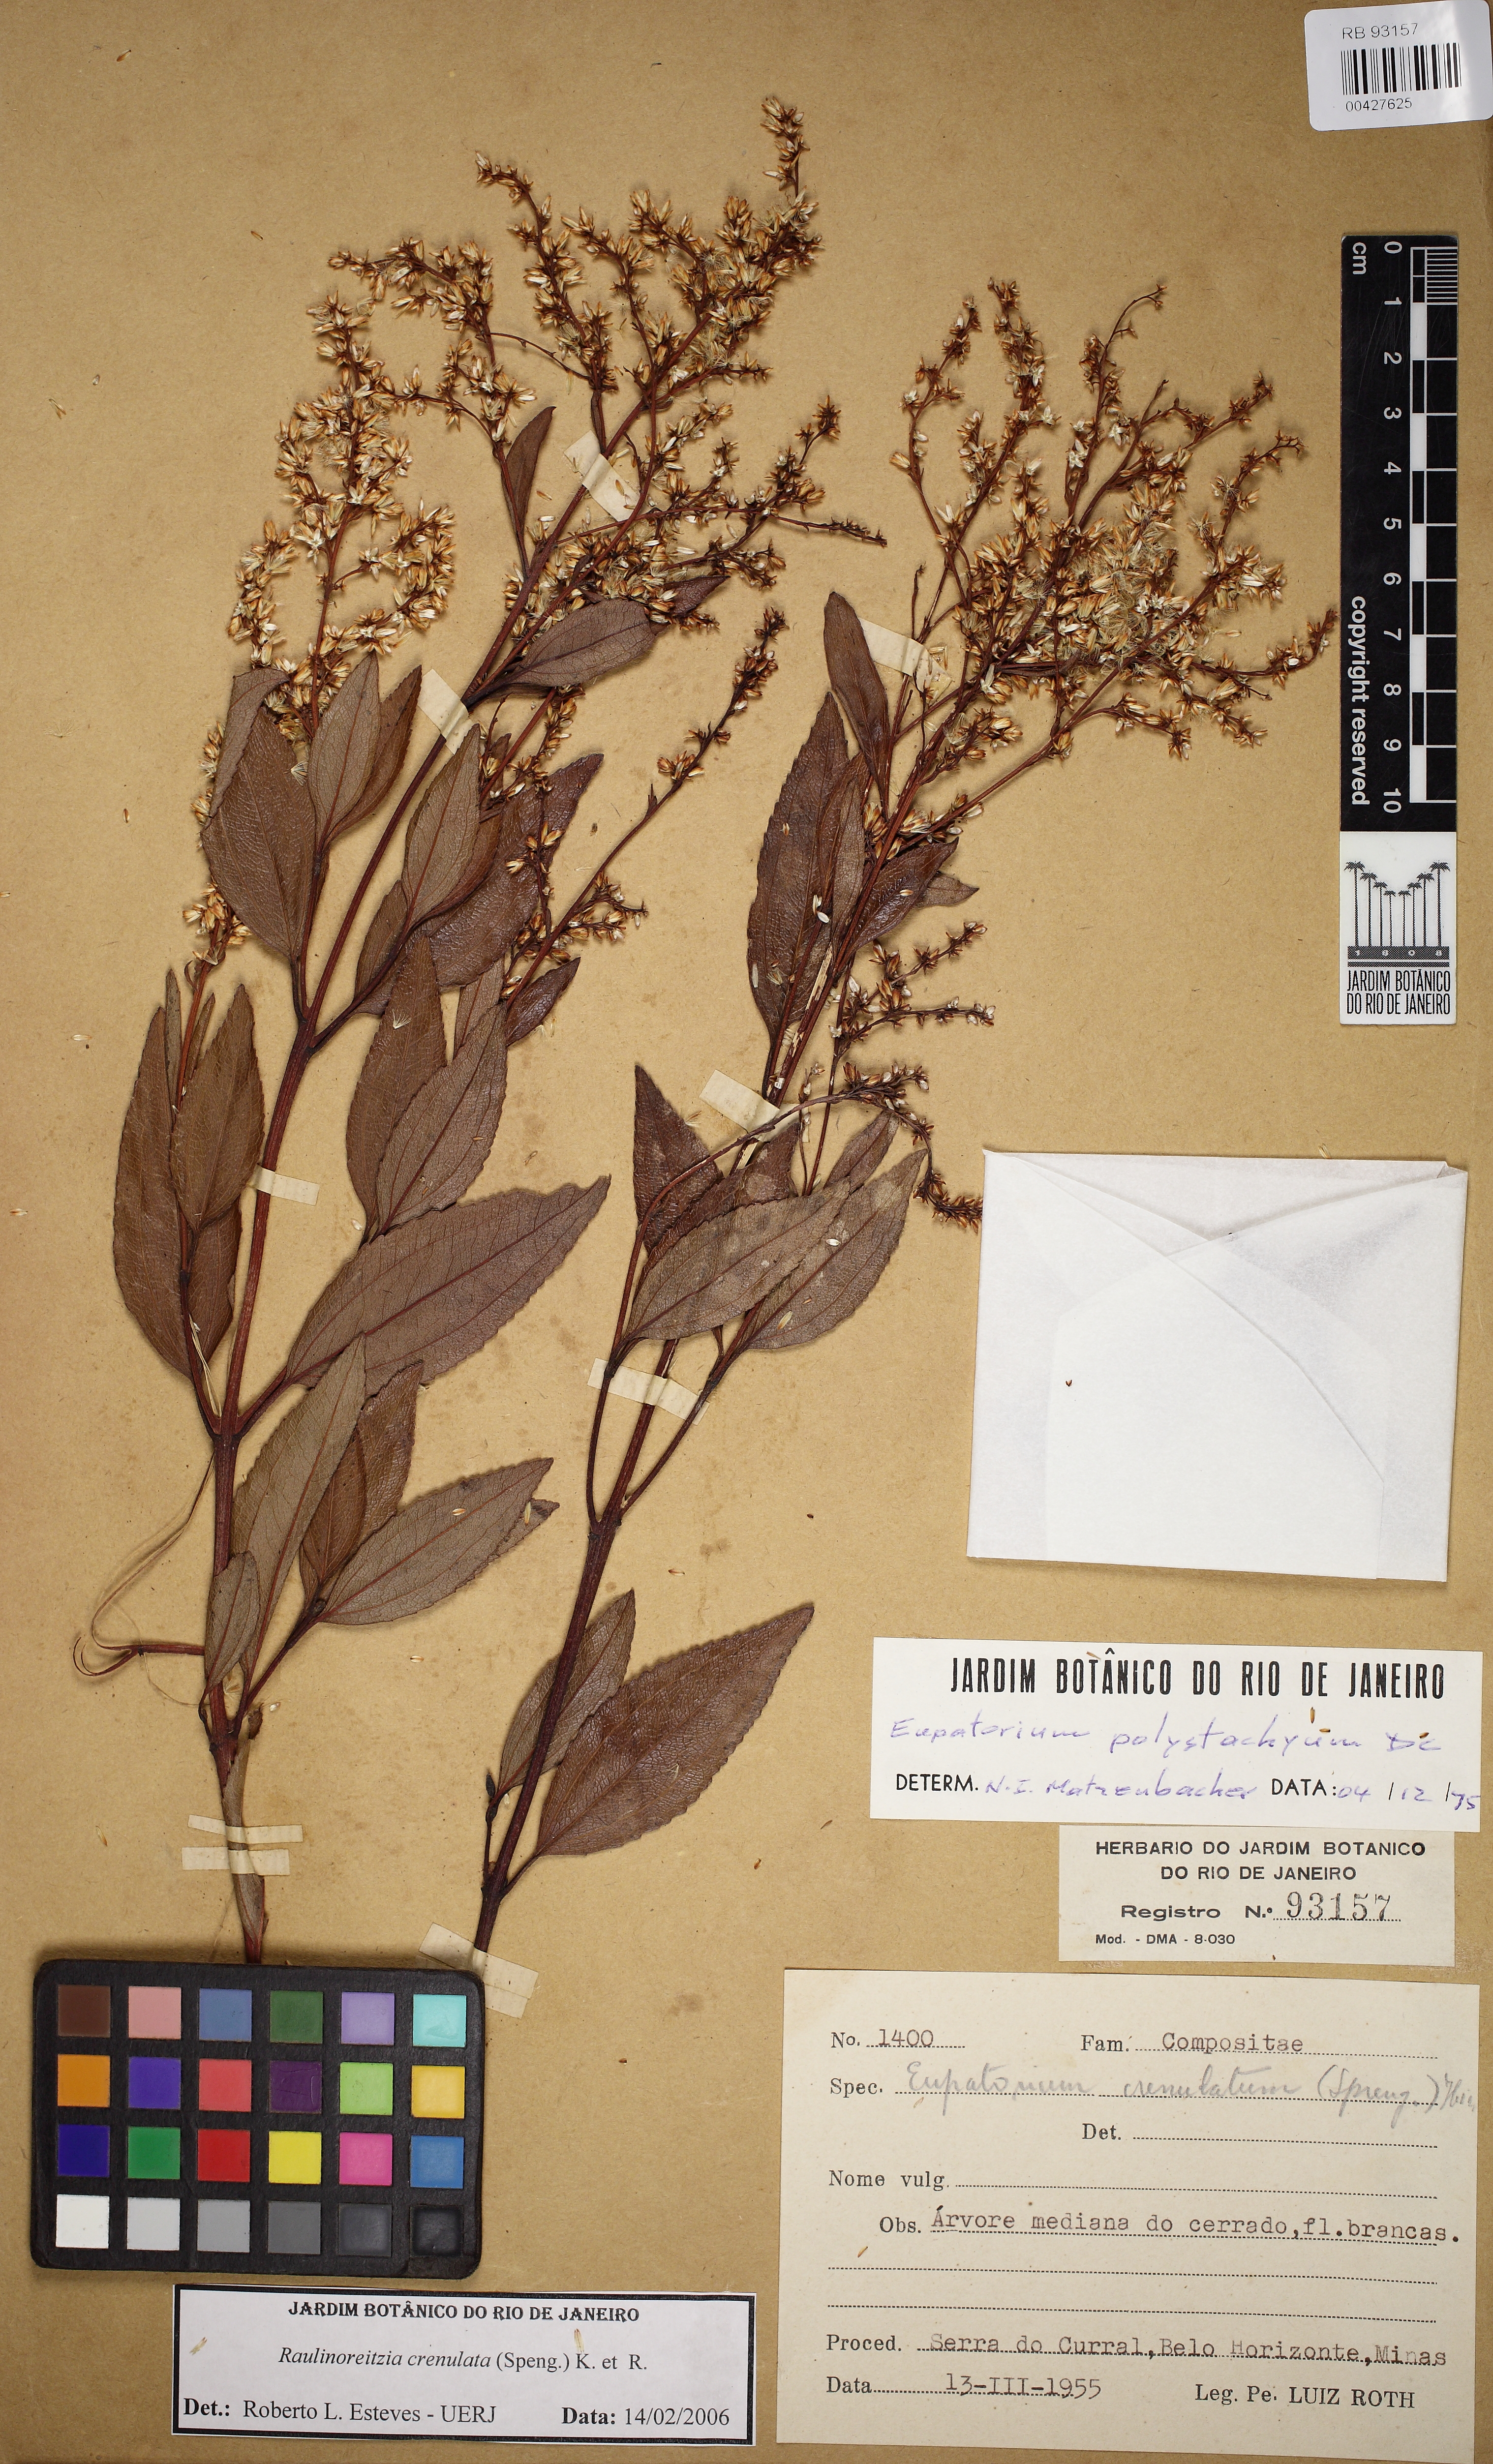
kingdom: Plantae
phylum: Tracheophyta
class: Magnoliopsida
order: Asterales
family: Asteraceae
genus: Raulinoreitzia
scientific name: Raulinoreitzia crenulata
